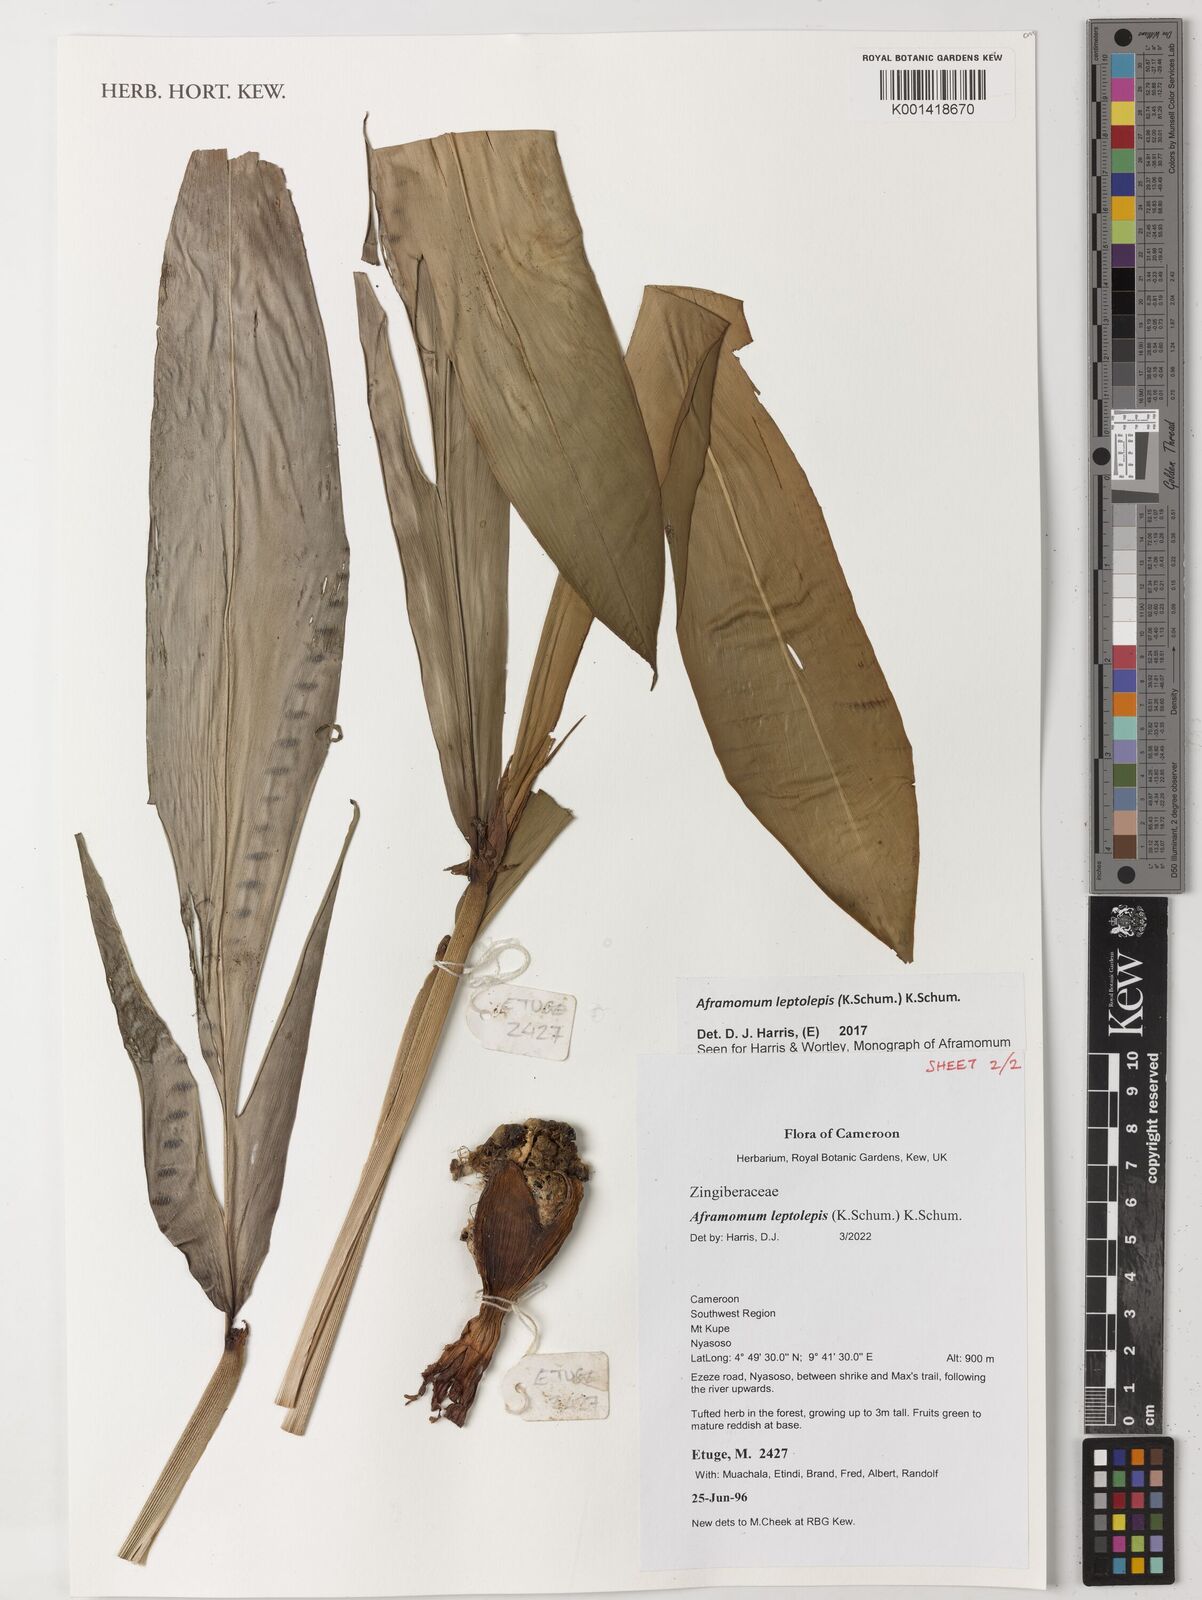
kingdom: Plantae
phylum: Tracheophyta
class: Liliopsida
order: Zingiberales
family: Zingiberaceae
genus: Aframomum
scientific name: Aframomum leptolepis
